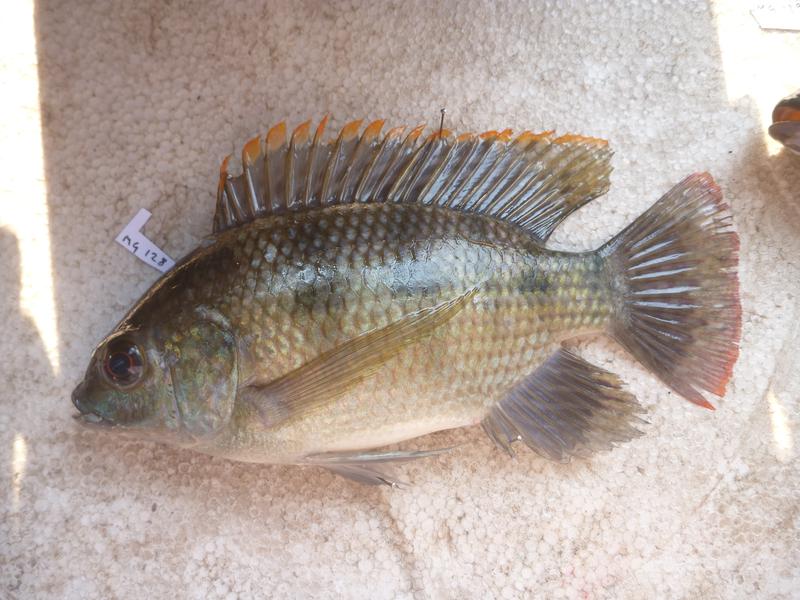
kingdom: Animalia
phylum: Chordata
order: Perciformes
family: Cichlidae
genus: Oreochromis
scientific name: Oreochromis upembae
